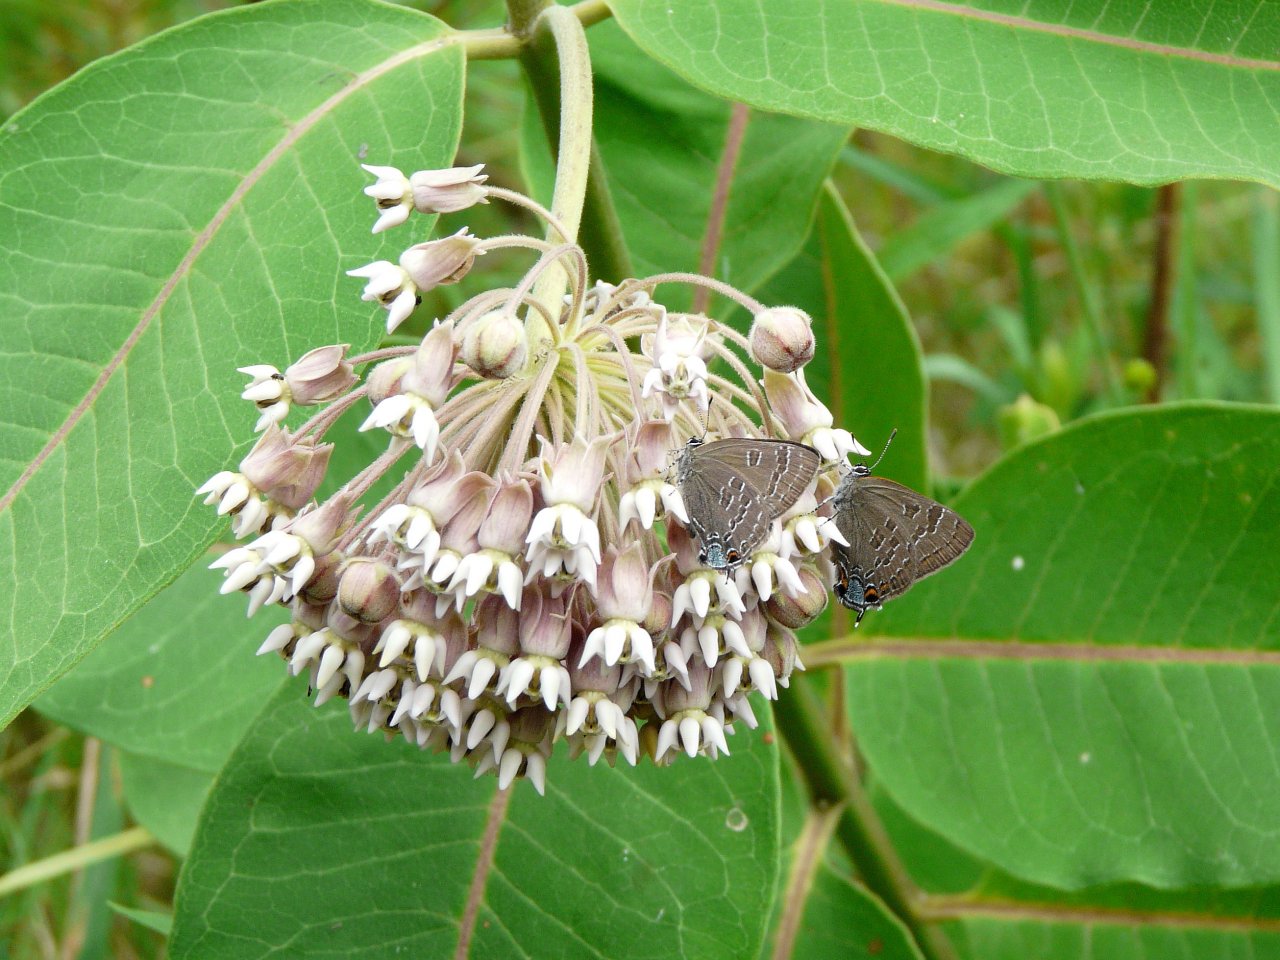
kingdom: Animalia
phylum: Arthropoda
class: Insecta
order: Lepidoptera
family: Lycaenidae
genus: Strymon
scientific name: Strymon caryaevorus
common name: Hickory Hairstreak
